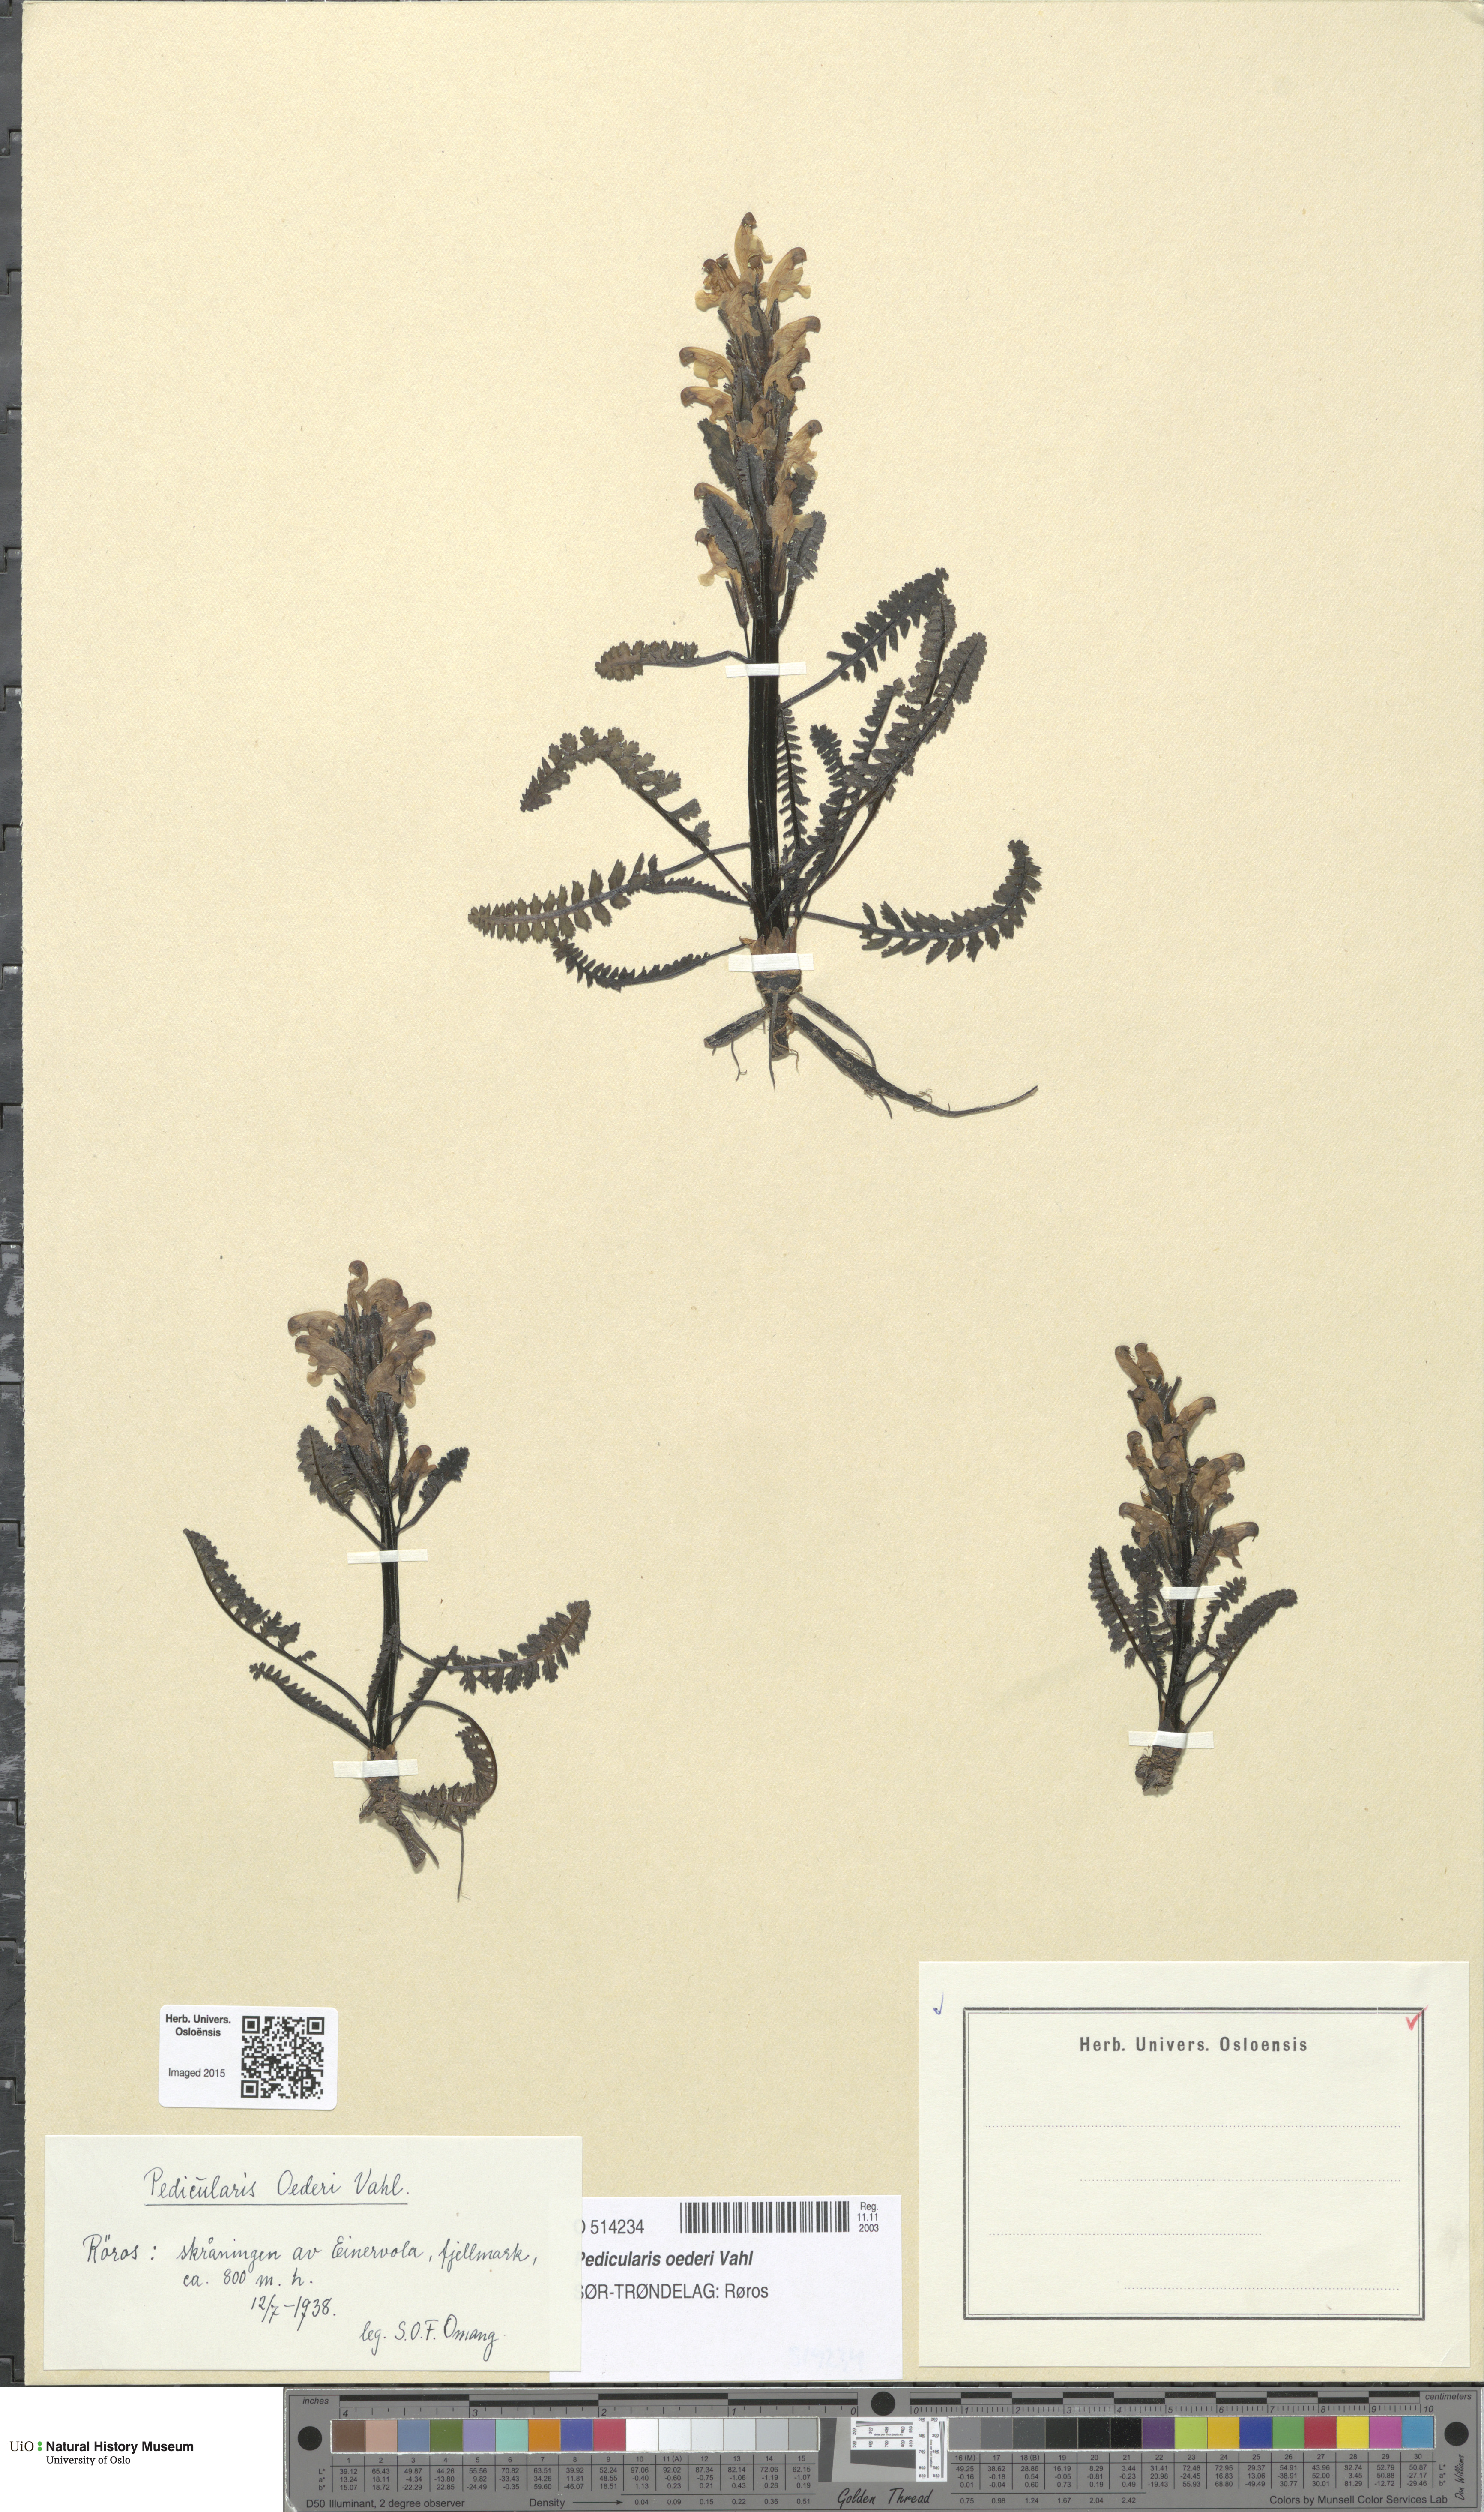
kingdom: Plantae
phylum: Tracheophyta
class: Magnoliopsida
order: Lamiales
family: Orobanchaceae
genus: Pedicularis
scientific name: Pedicularis oederi
